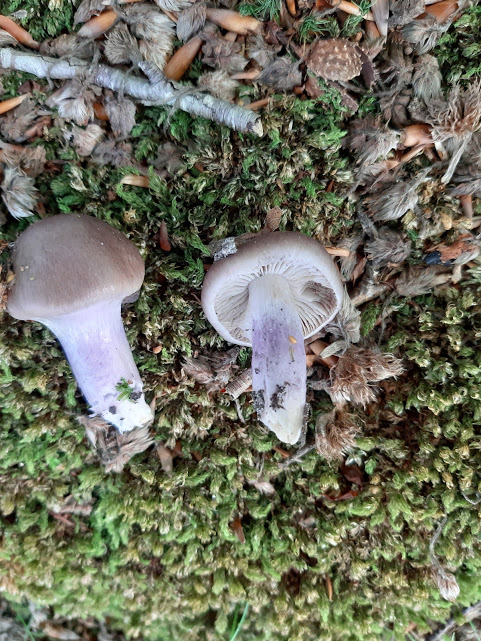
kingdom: Fungi
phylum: Basidiomycota
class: Agaricomycetes
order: Agaricales
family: Cortinariaceae
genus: Cortinarius
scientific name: Cortinarius elatior
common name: høj slørhat
